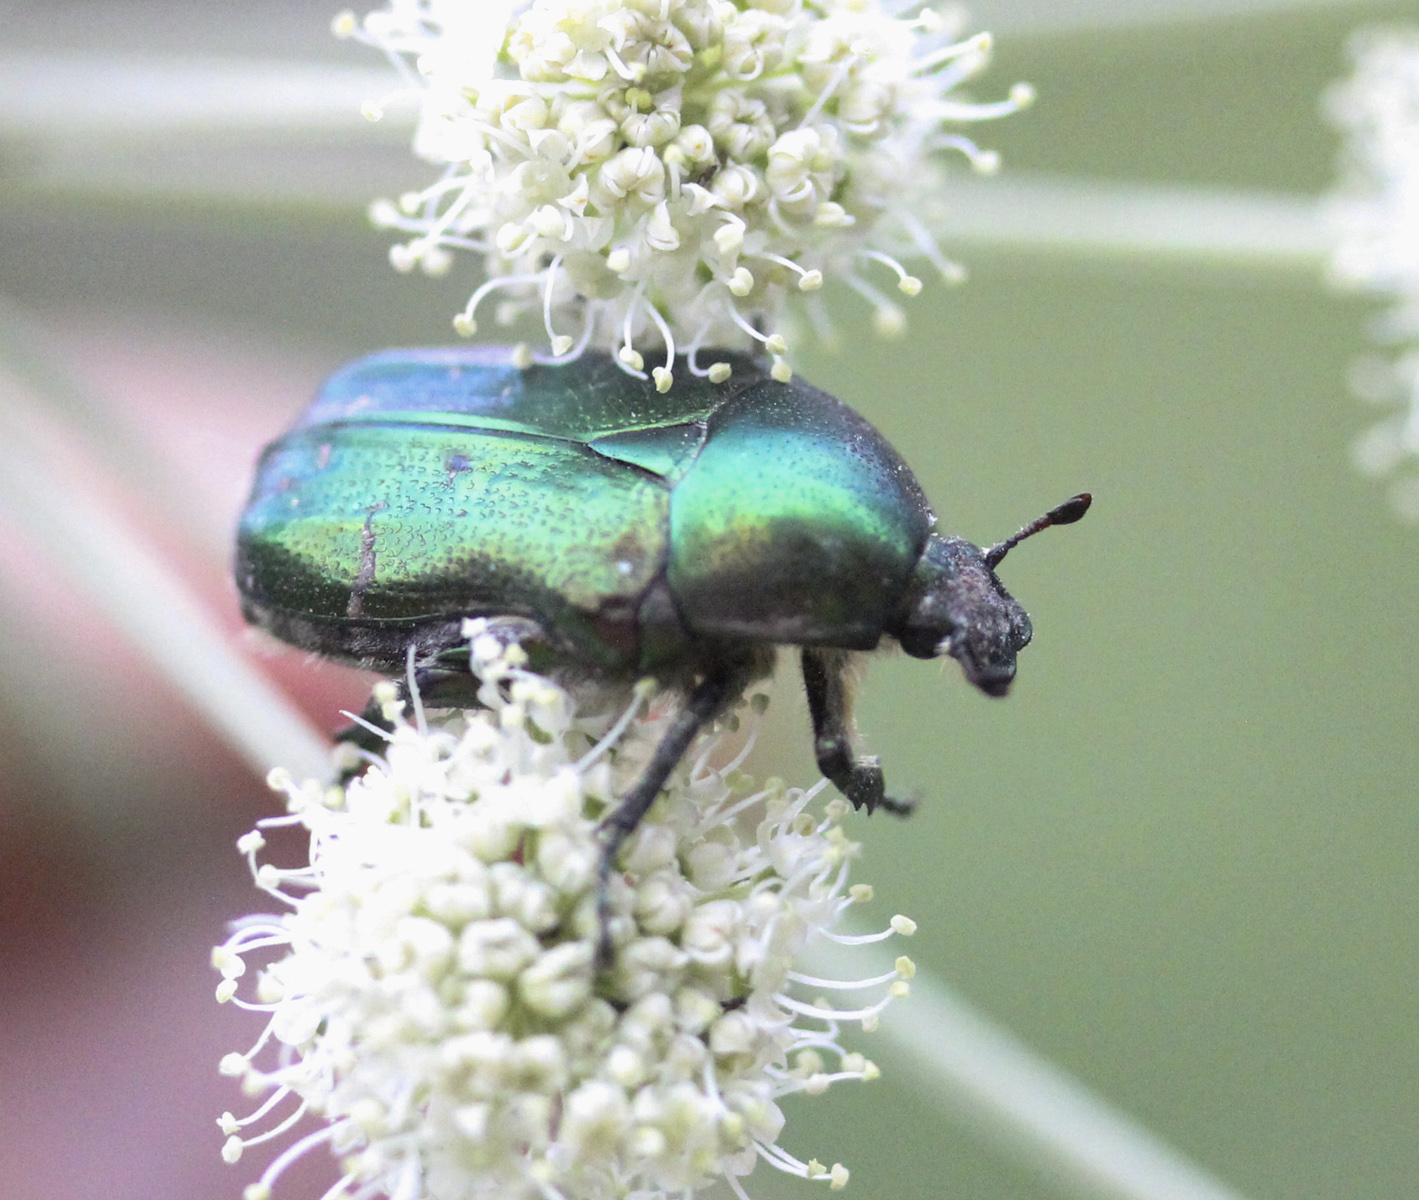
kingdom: Animalia
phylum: Arthropoda
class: Insecta
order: Coleoptera
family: Scarabaeidae
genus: Cetonia
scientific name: Cetonia aurata
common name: Rose chafer
